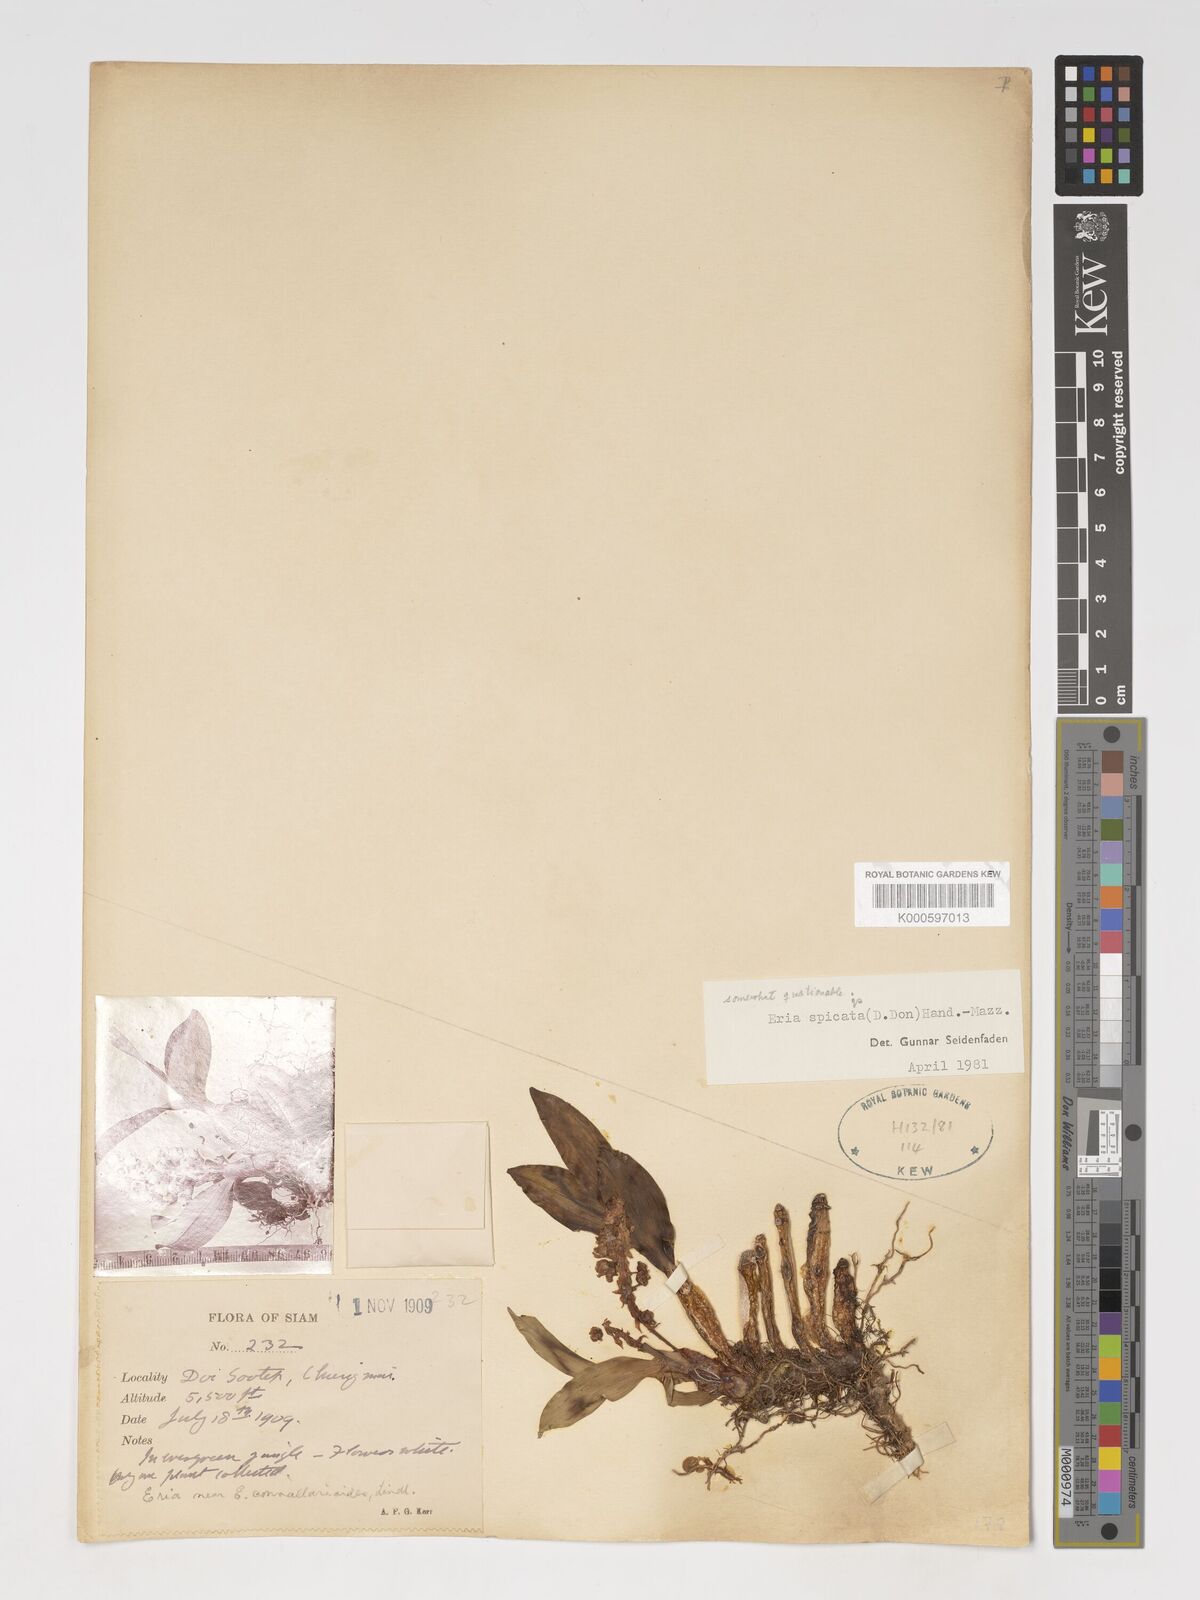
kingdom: Plantae
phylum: Tracheophyta
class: Liliopsida
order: Asparagales
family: Orchidaceae
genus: Pinalia
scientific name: Pinalia spicata
